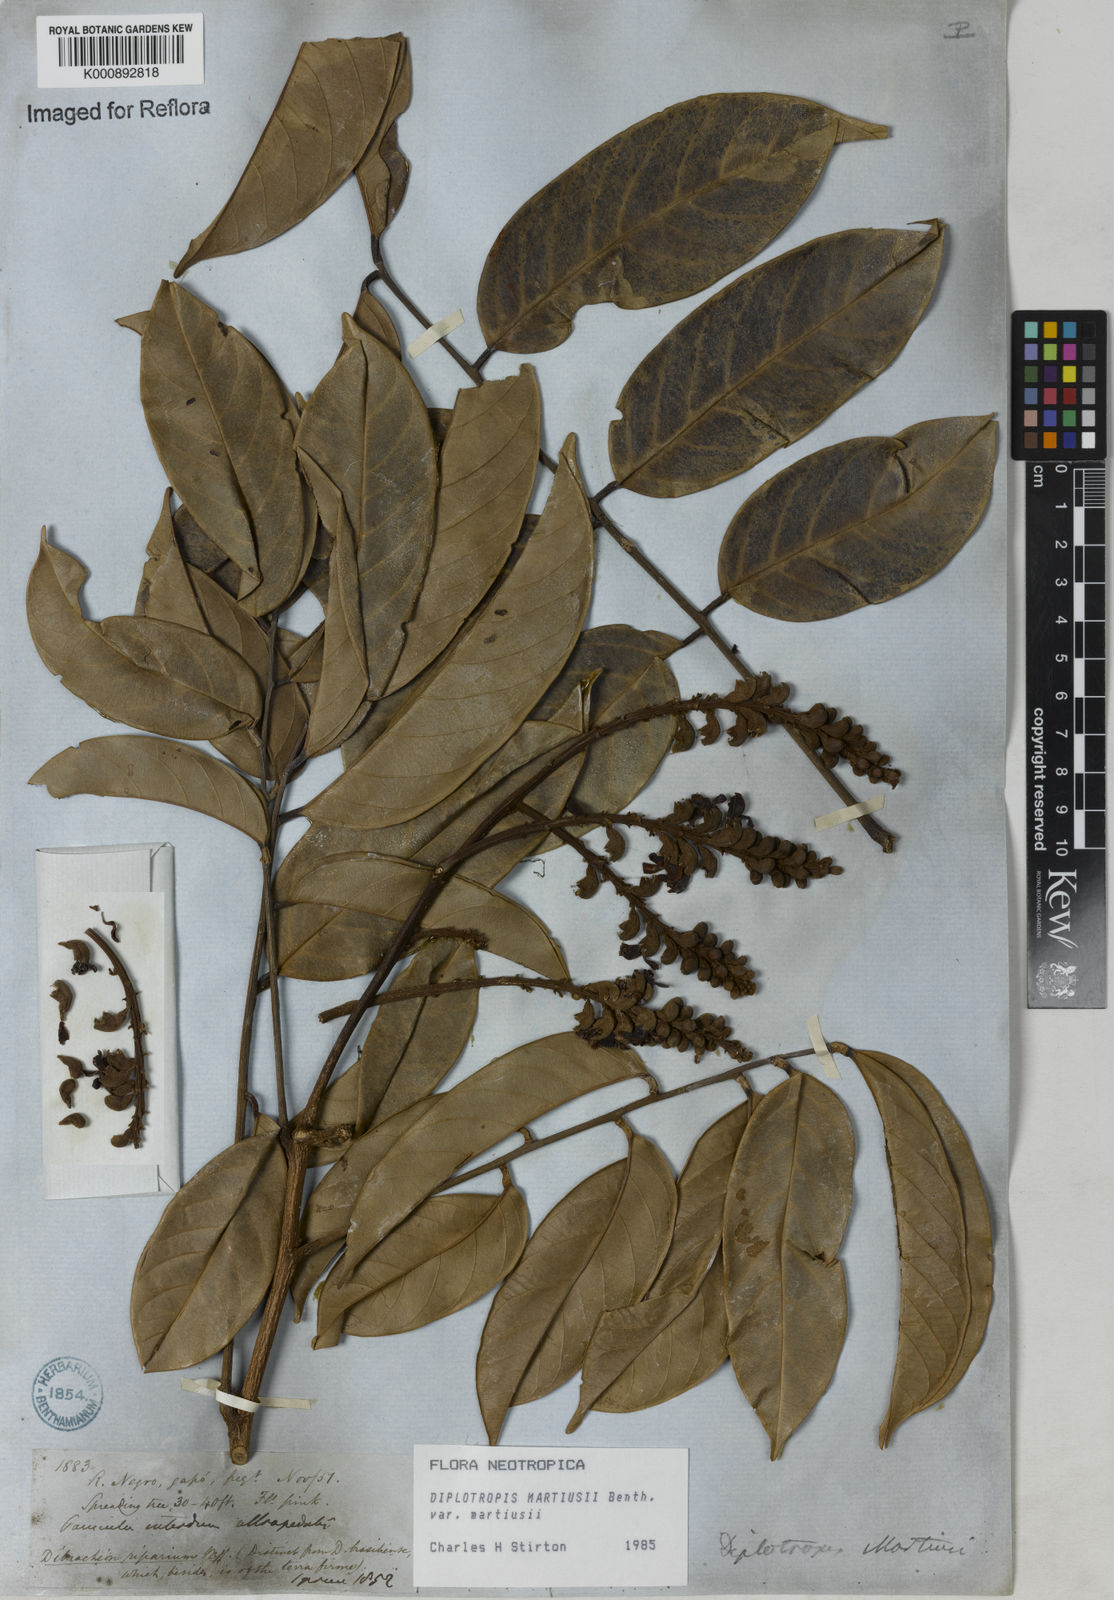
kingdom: Plantae
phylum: Tracheophyta
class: Magnoliopsida
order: Fabales
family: Fabaceae
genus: Diplotropis
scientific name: Diplotropis
